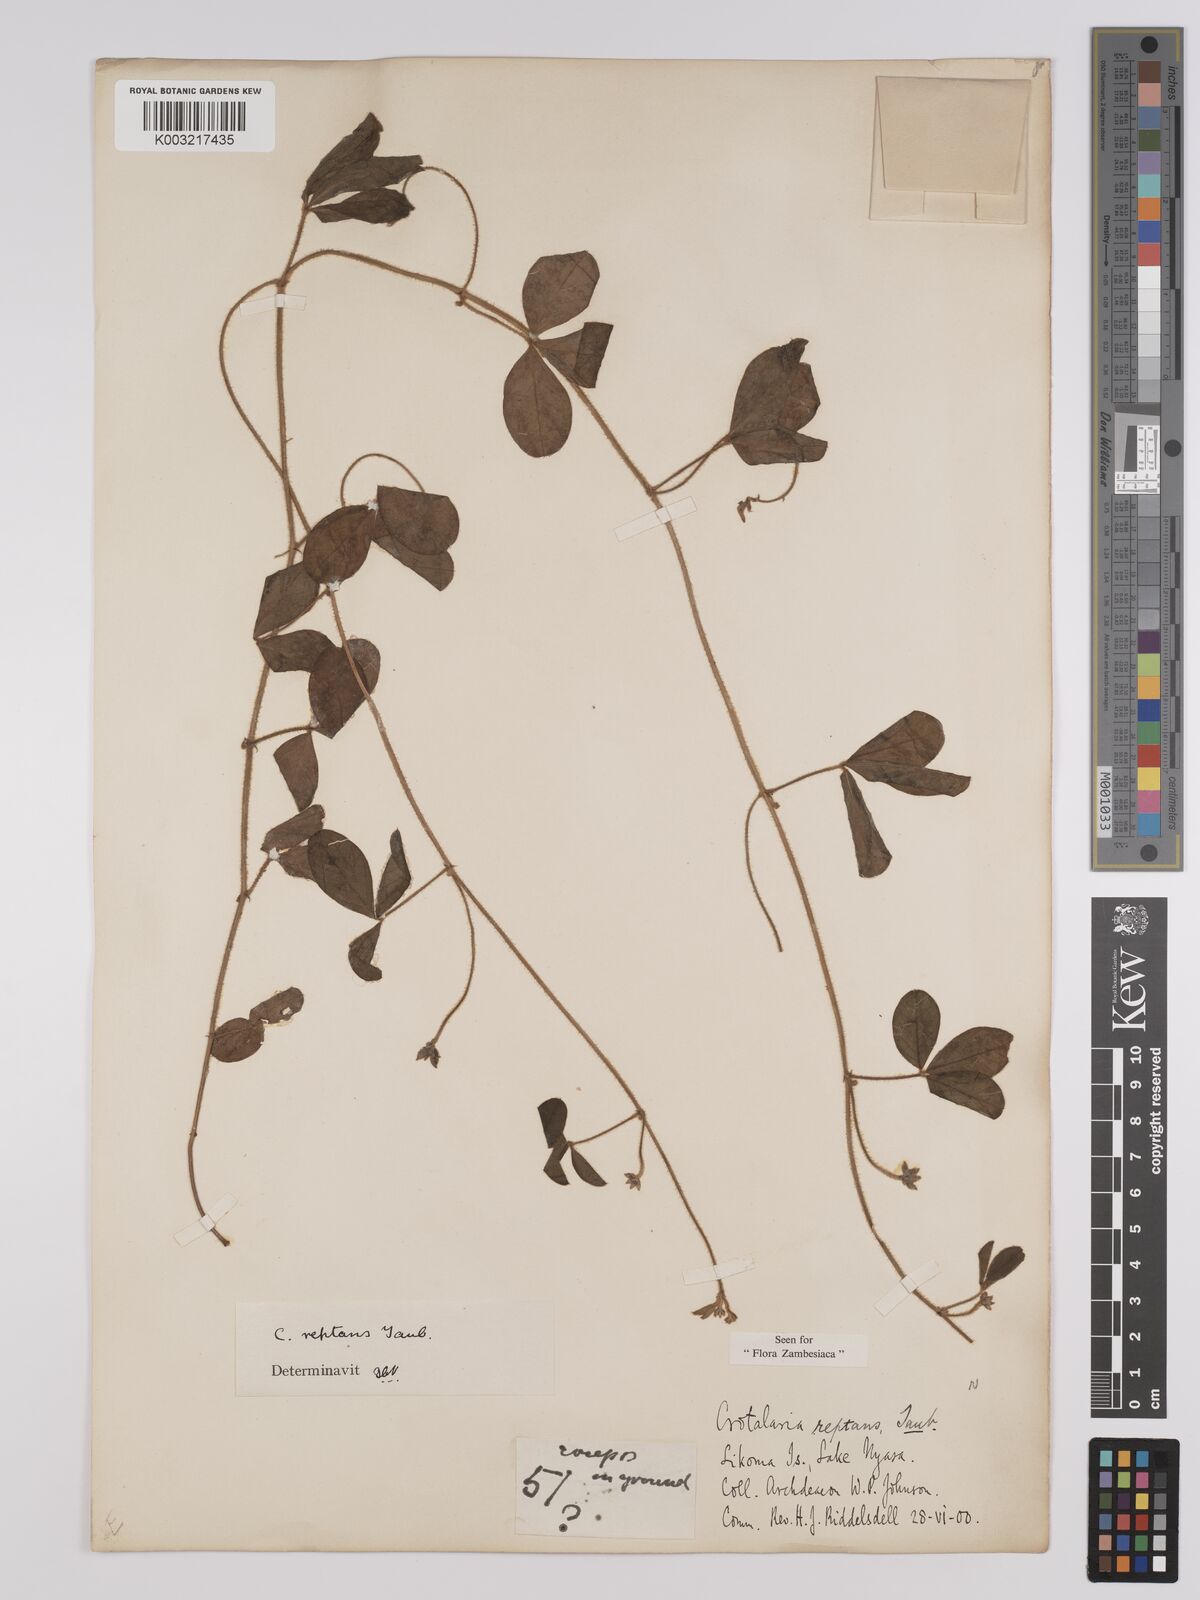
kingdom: Plantae
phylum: Tracheophyta
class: Magnoliopsida
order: Fabales
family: Fabaceae
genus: Crotalaria
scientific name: Crotalaria reptans
